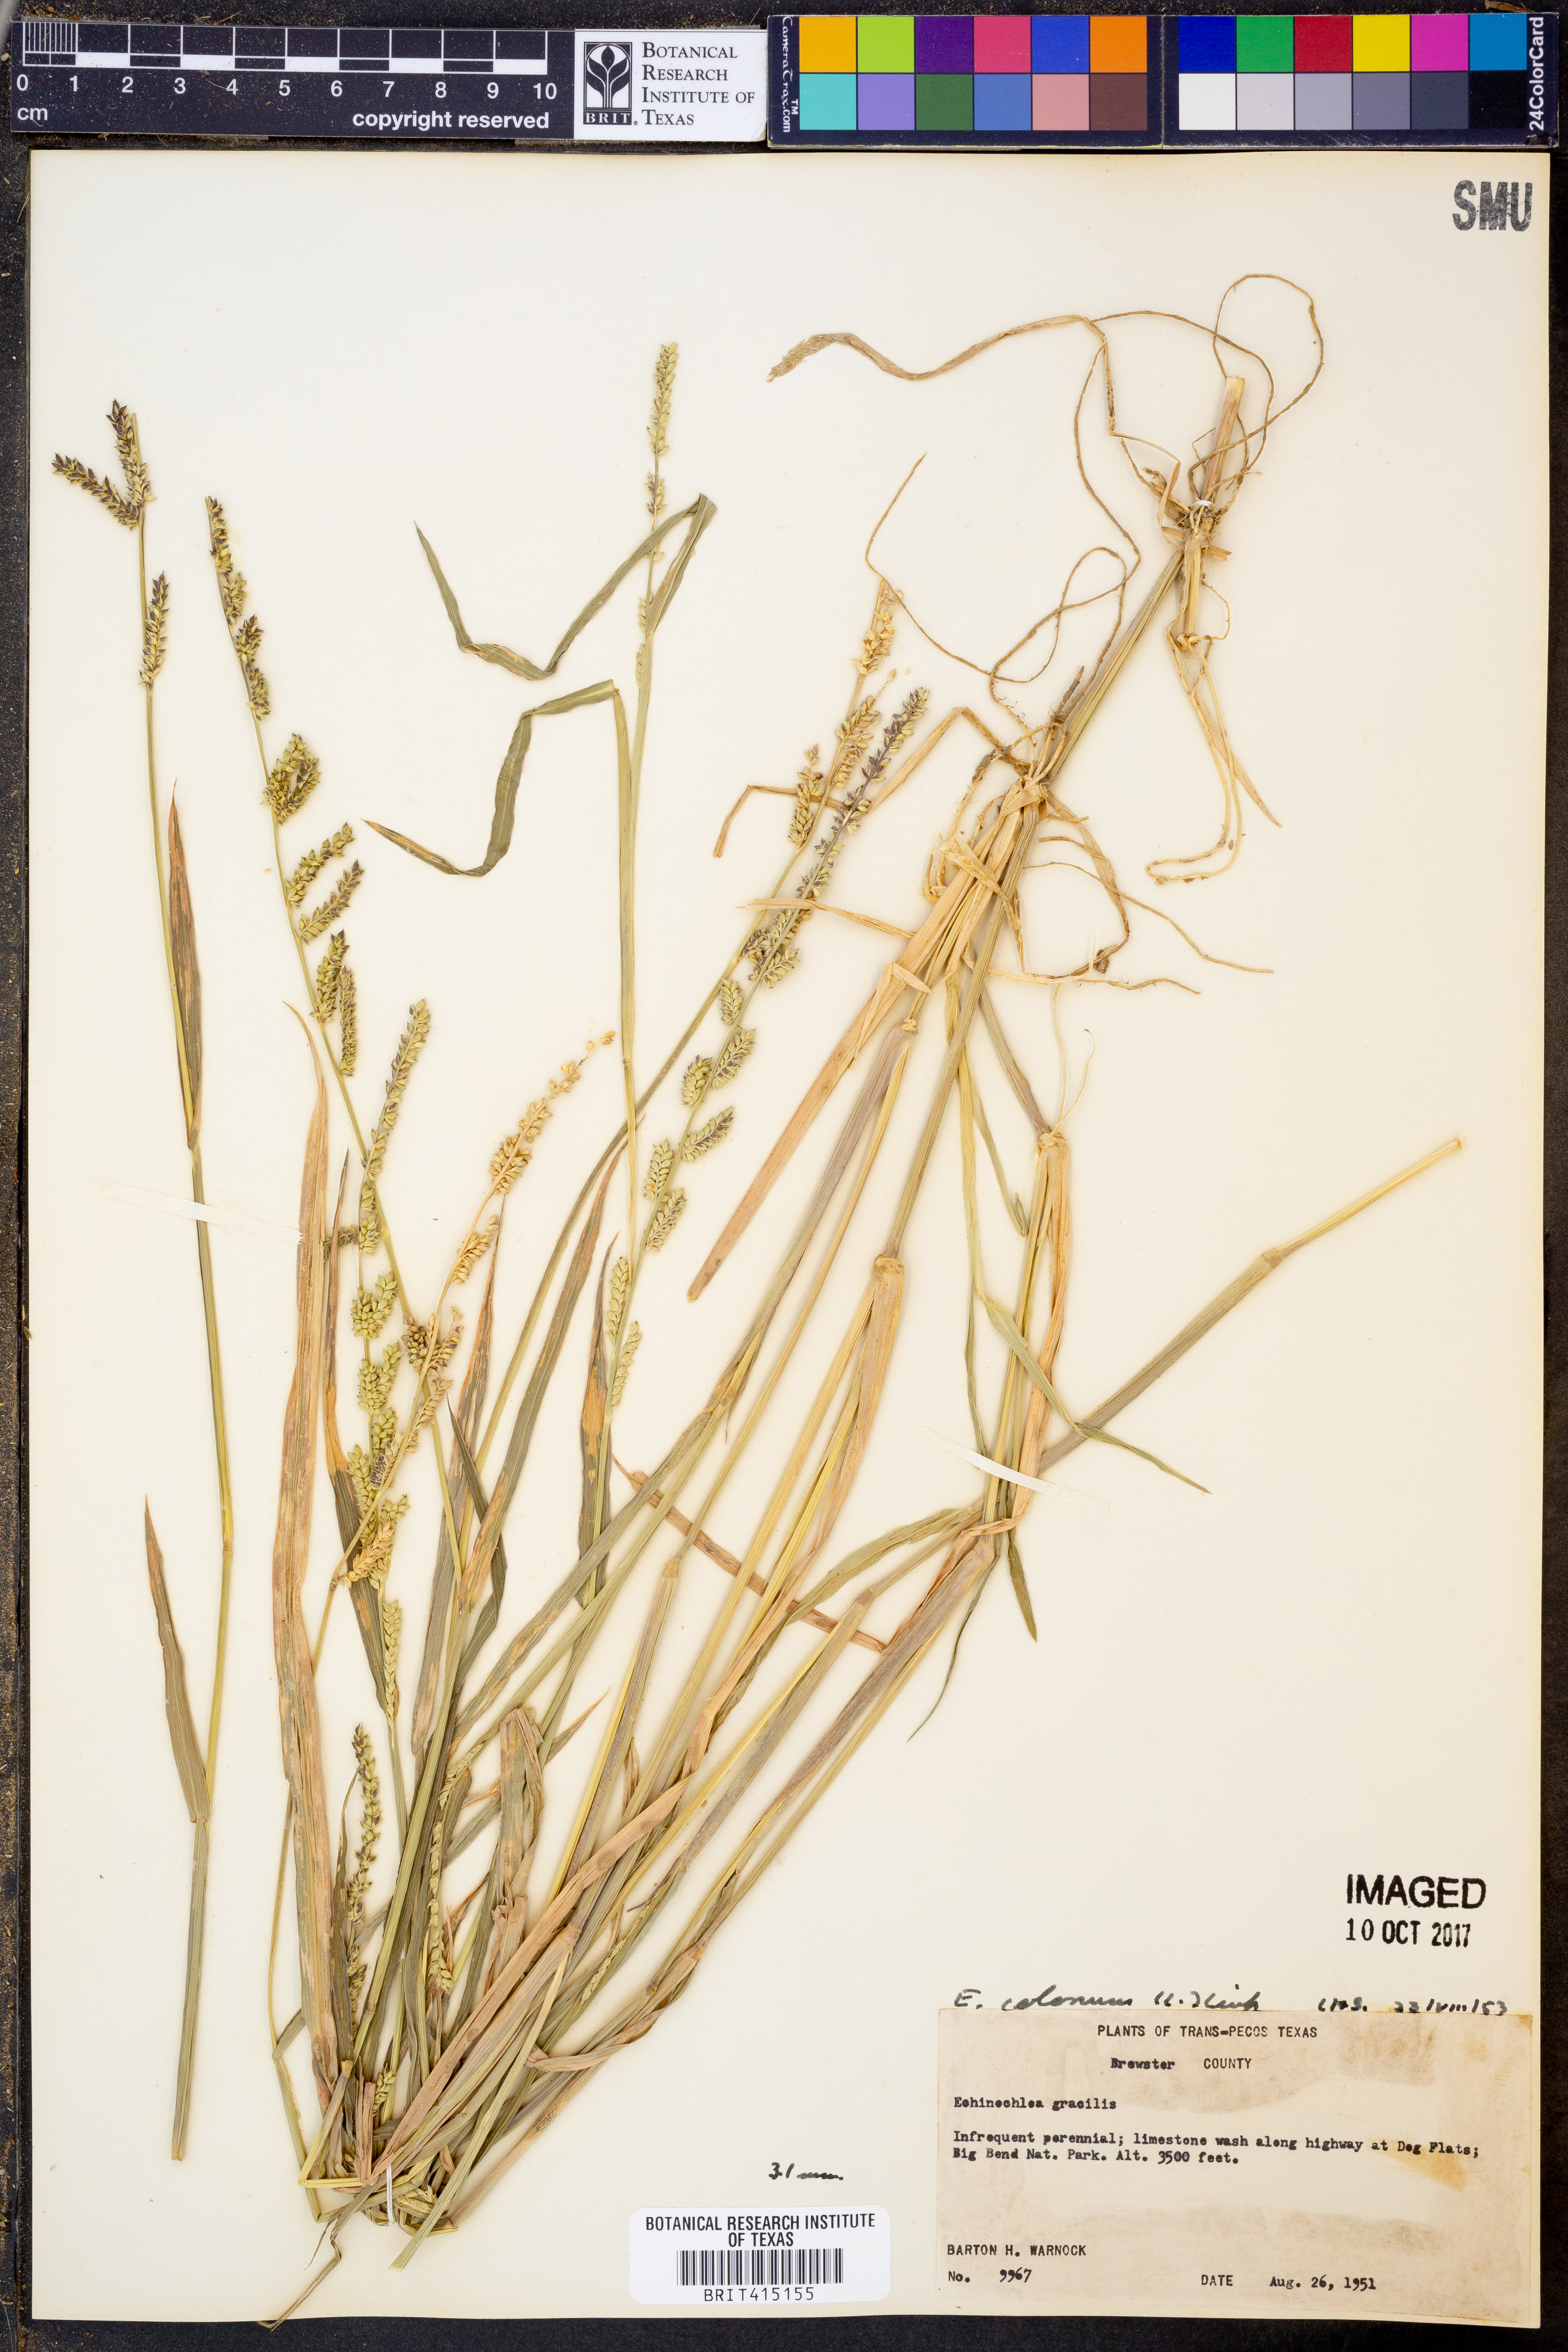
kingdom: Plantae
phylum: Tracheophyta
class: Liliopsida
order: Poales
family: Poaceae
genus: Echinochloa
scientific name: Echinochloa colonum
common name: Jungle rice
